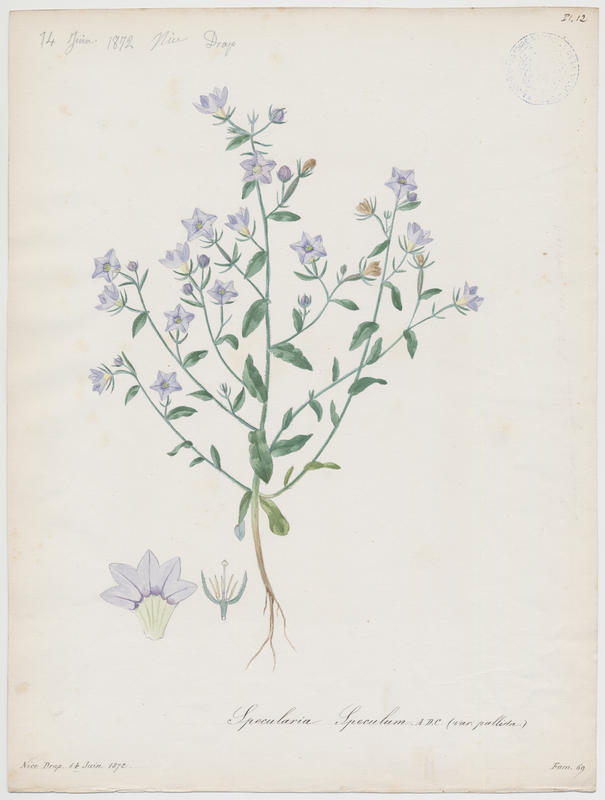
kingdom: Plantae
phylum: Tracheophyta
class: Magnoliopsida
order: Asterales
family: Campanulaceae
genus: Legousia
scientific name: Legousia speculum-veneris
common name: Large venus's-looking-glass
